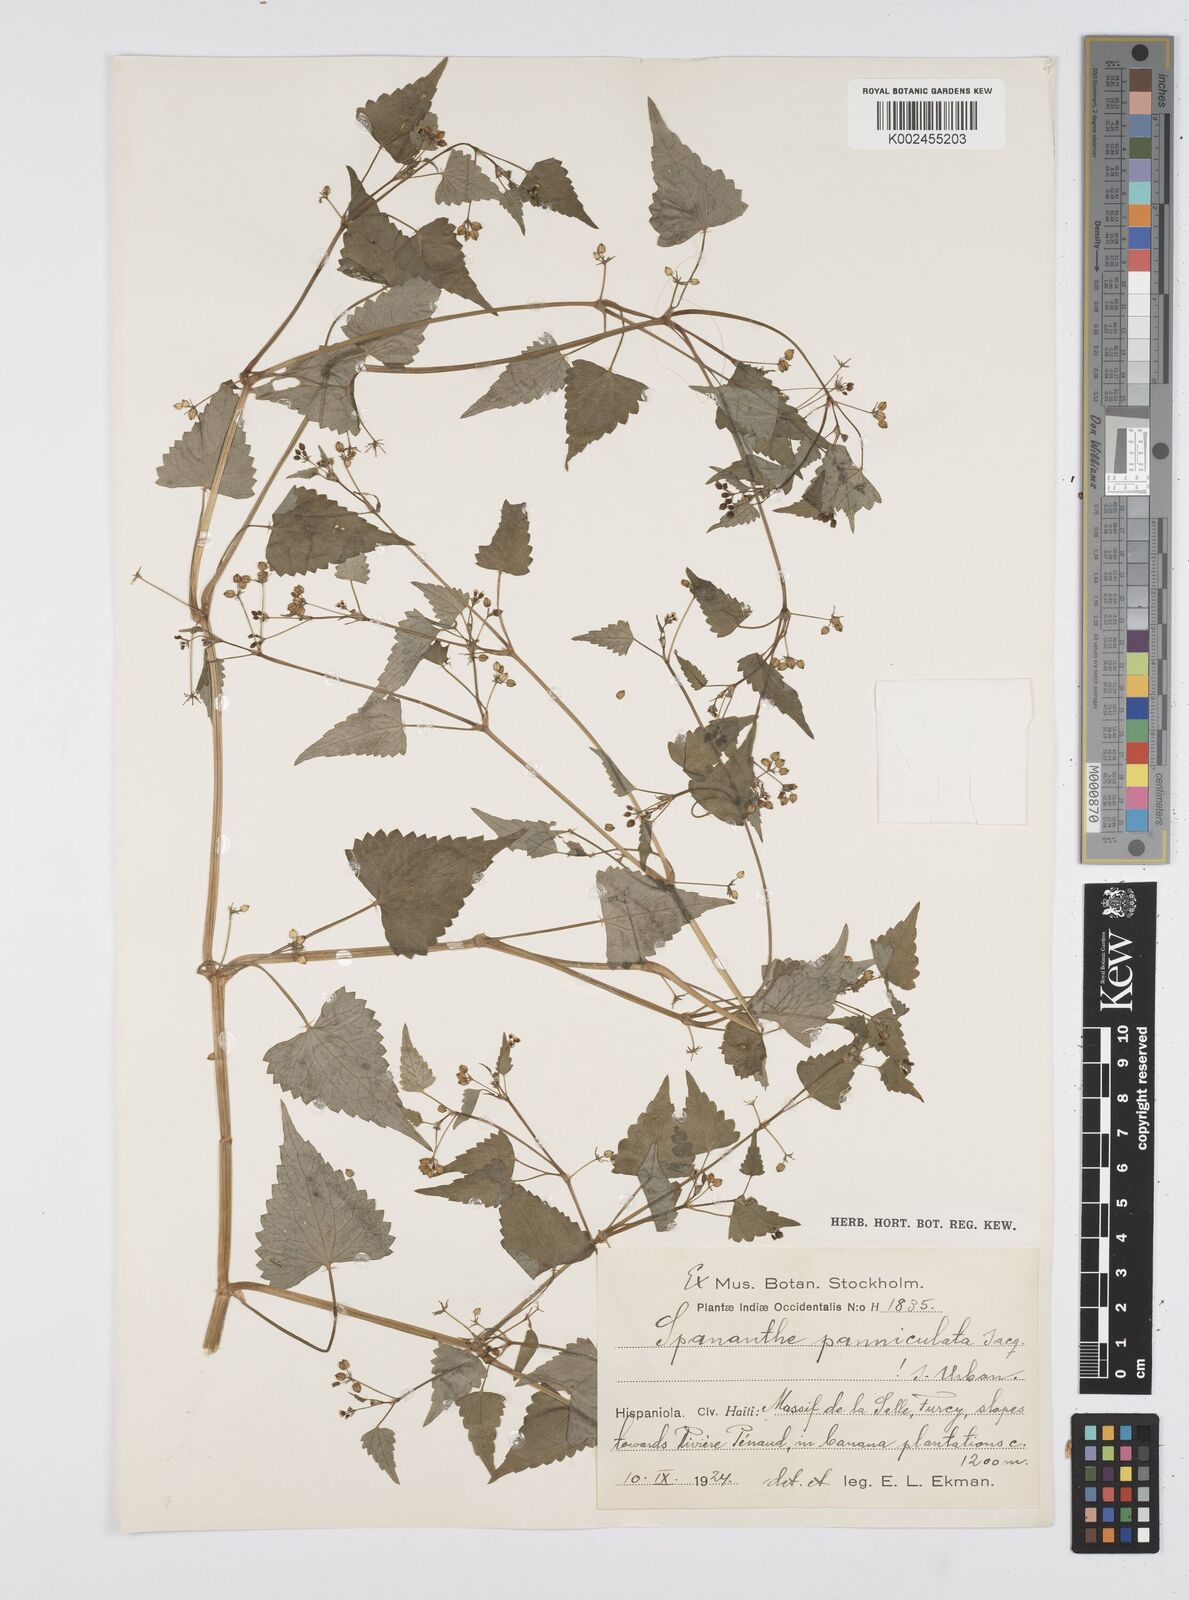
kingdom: Plantae
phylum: Tracheophyta
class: Magnoliopsida
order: Apiales
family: Apiaceae
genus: Azorella
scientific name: Azorella
